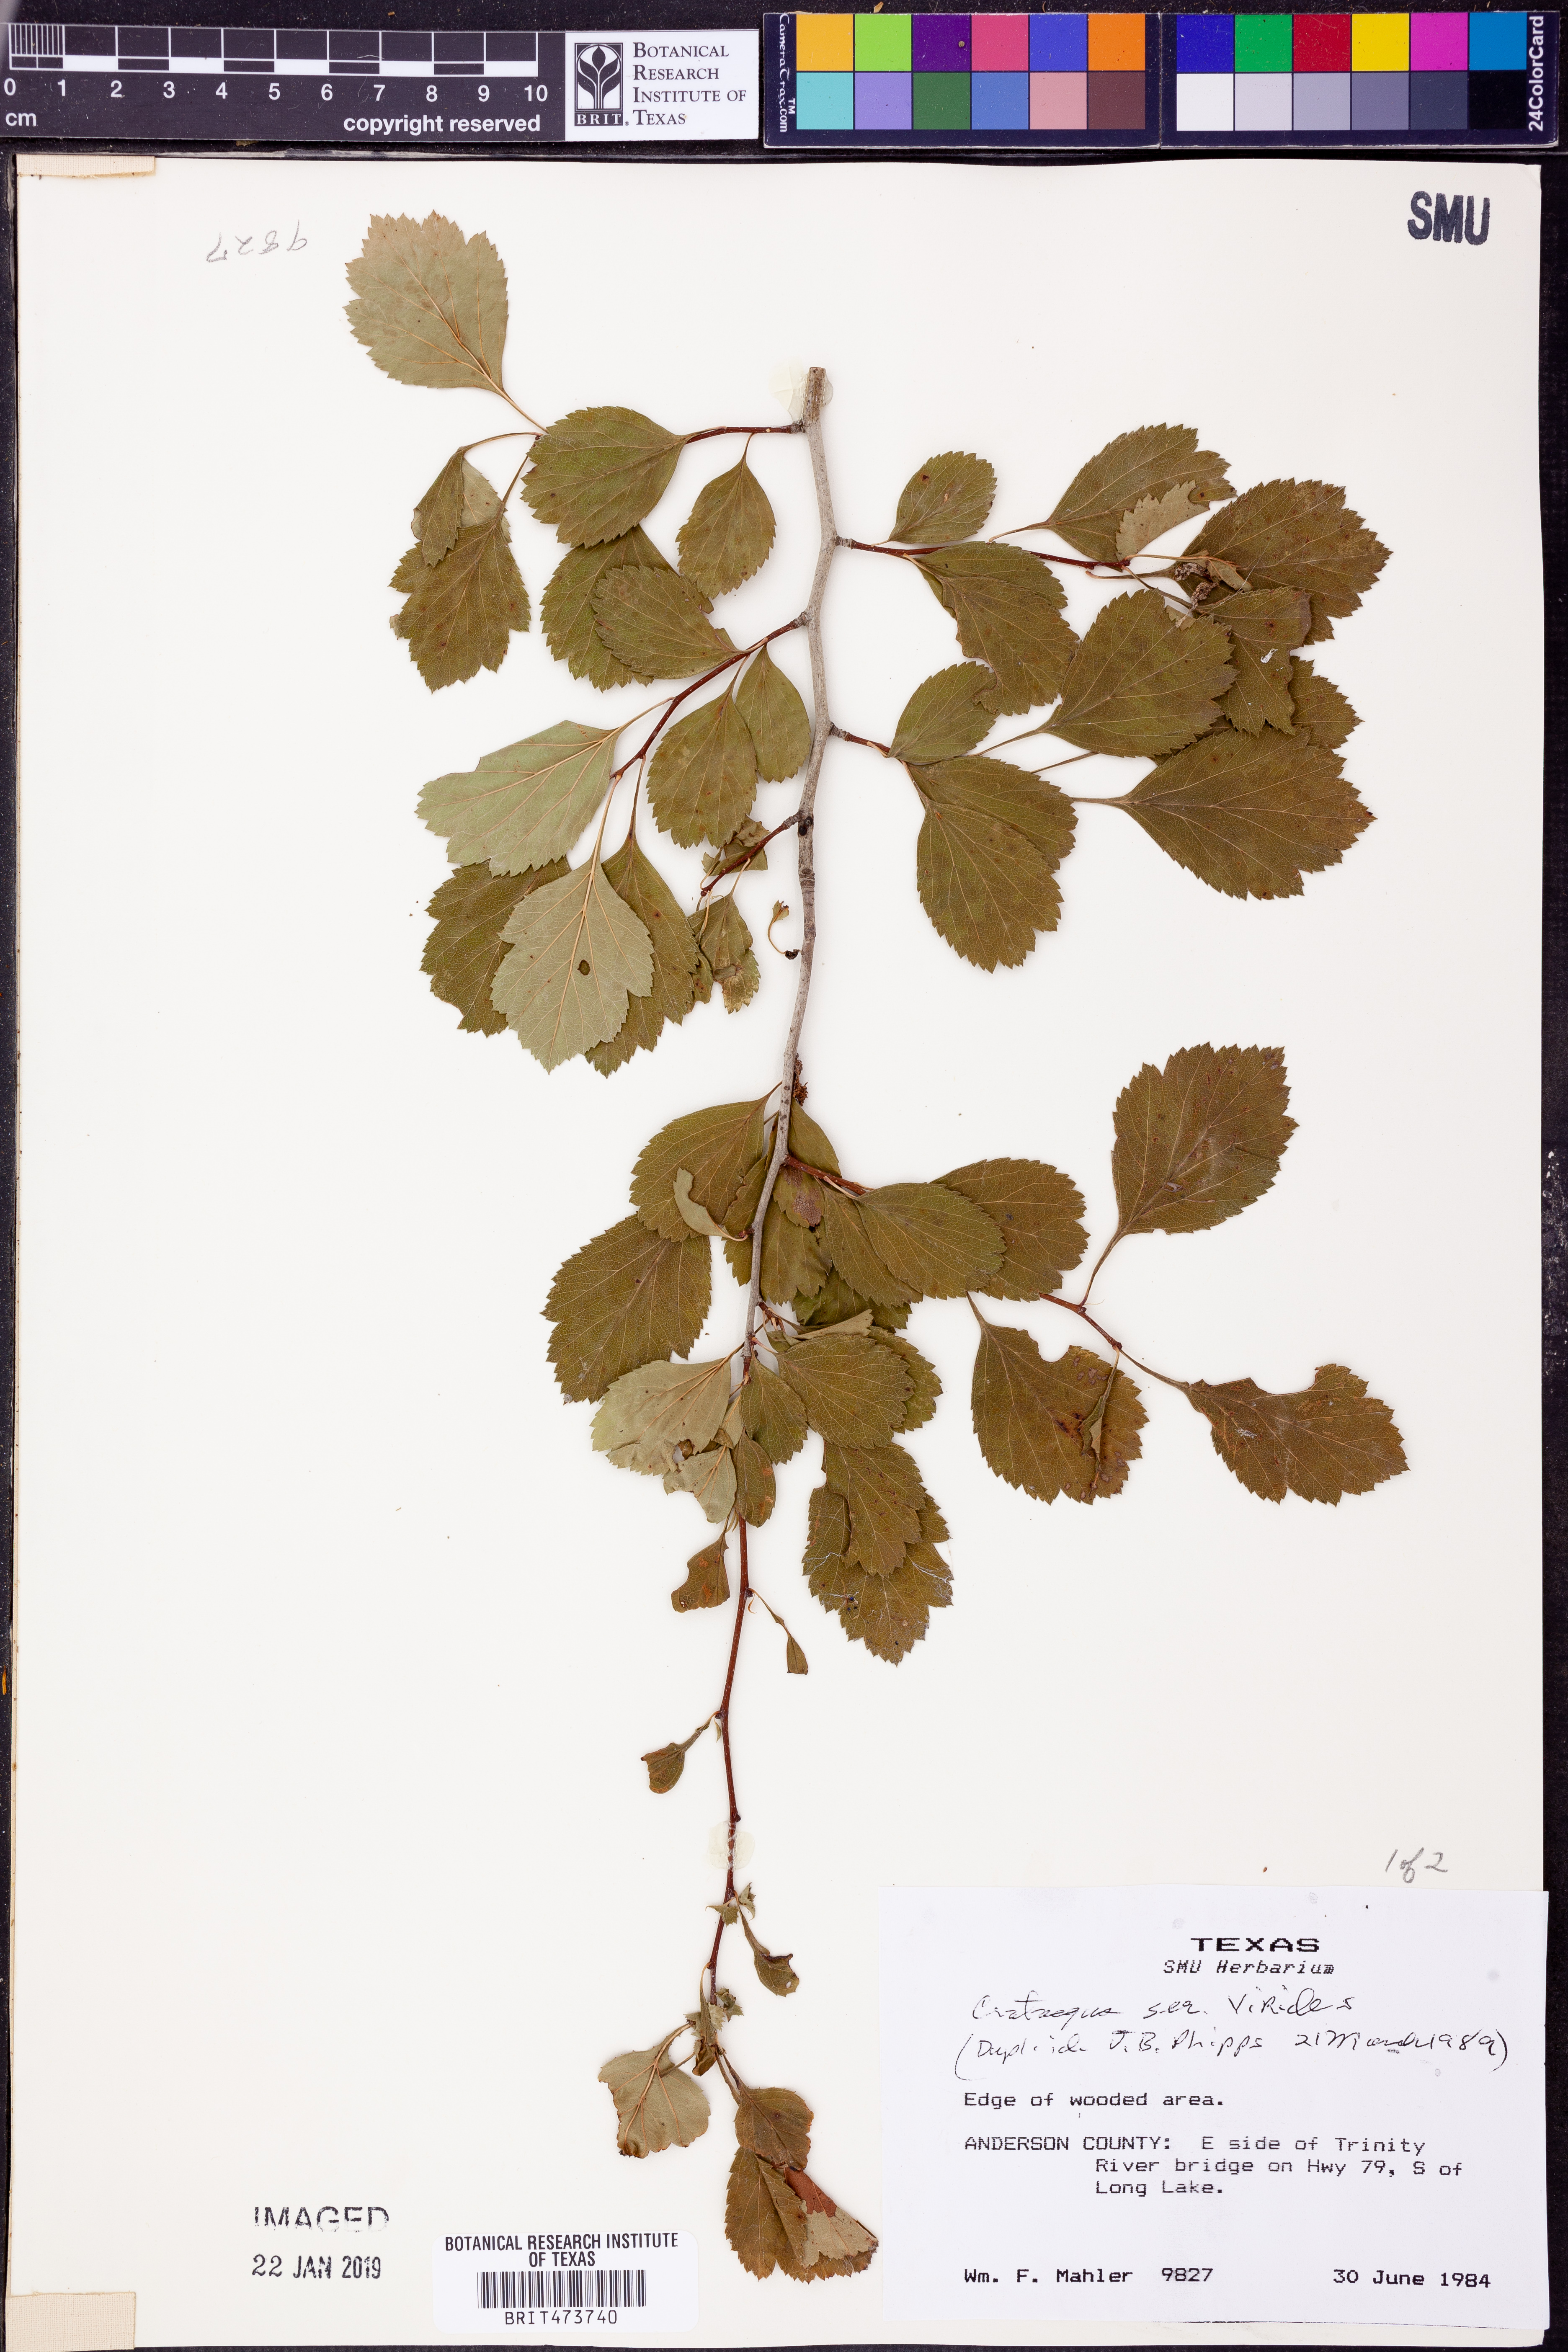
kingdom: Plantae
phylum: Tracheophyta
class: Magnoliopsida
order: Rosales
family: Rosaceae
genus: Crataegus
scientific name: Crataegus mollis
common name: Downy hawthorn
